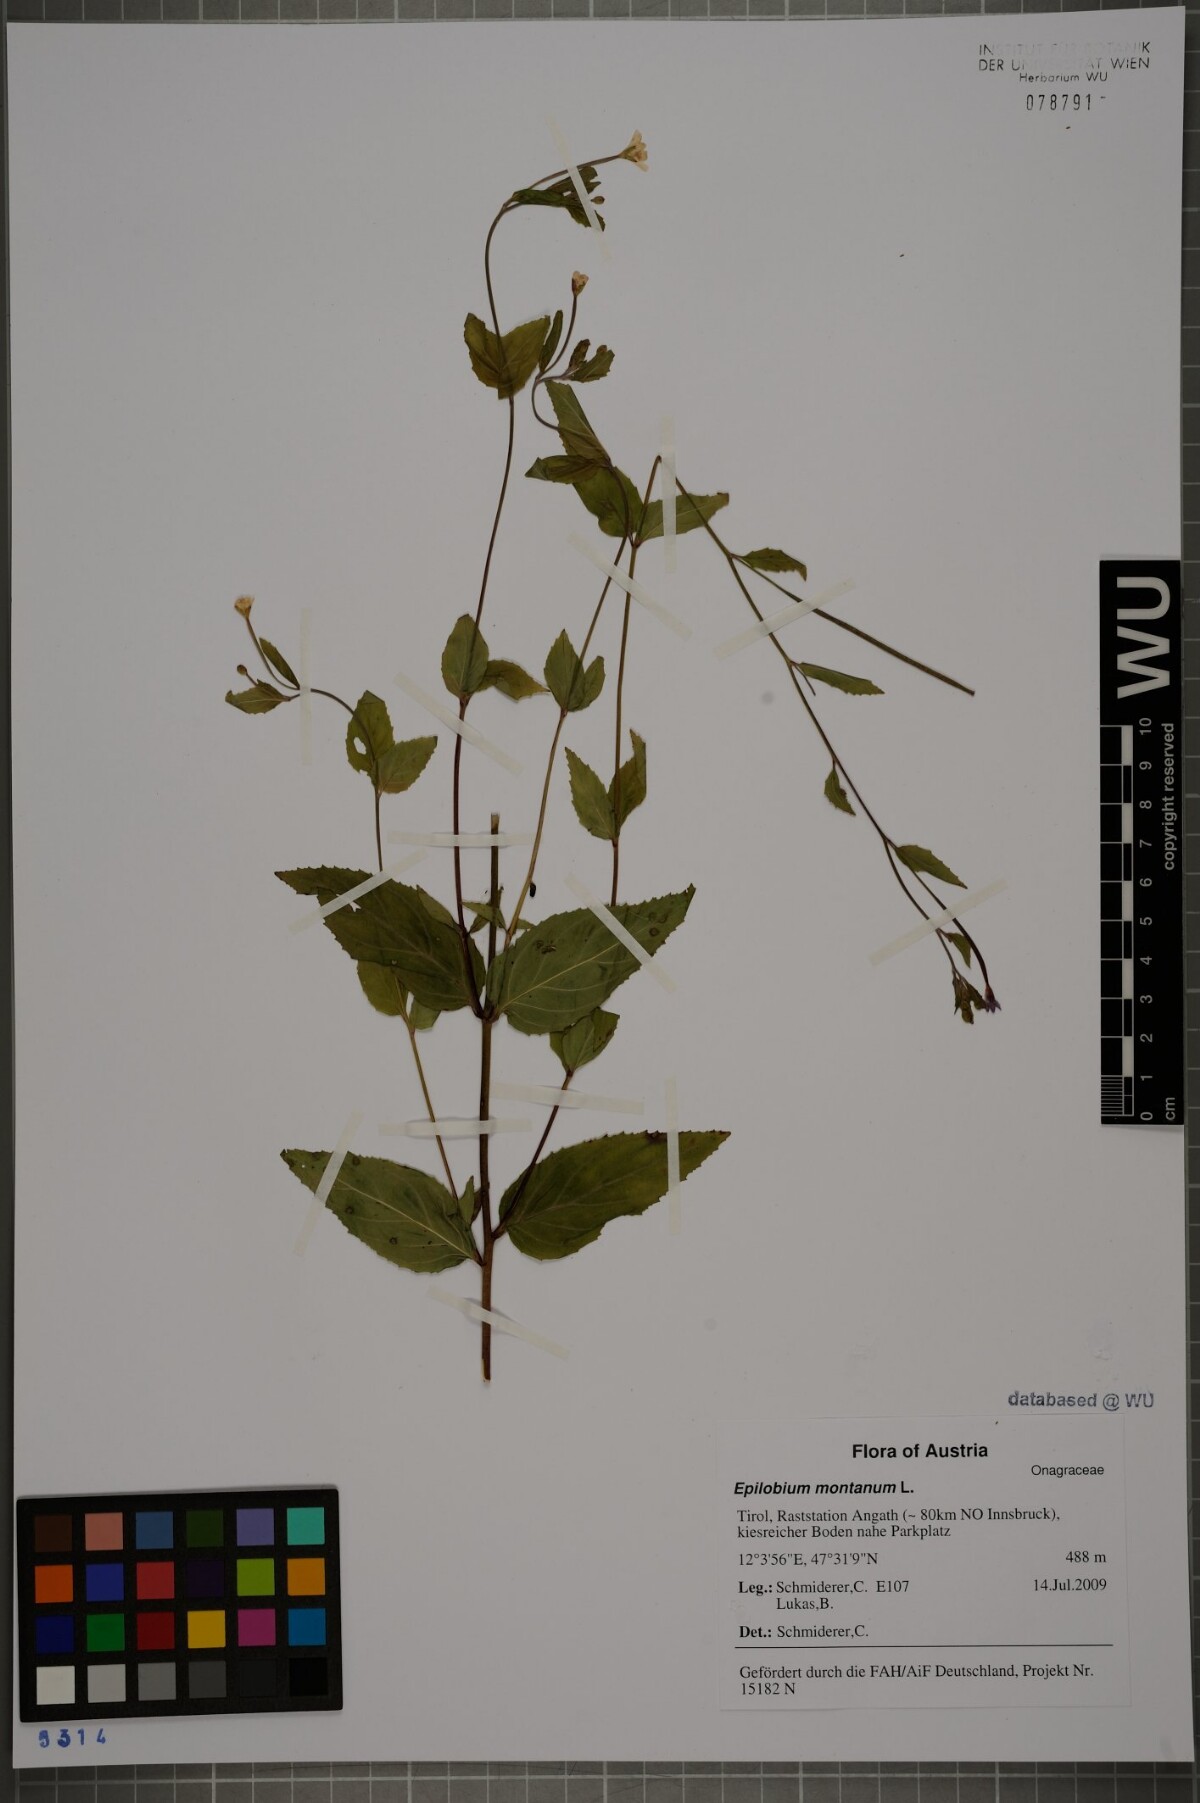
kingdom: Plantae
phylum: Tracheophyta
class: Magnoliopsida
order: Myrtales
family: Onagraceae
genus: Epilobium
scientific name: Epilobium montanum
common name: Broad-leaved willowherb
